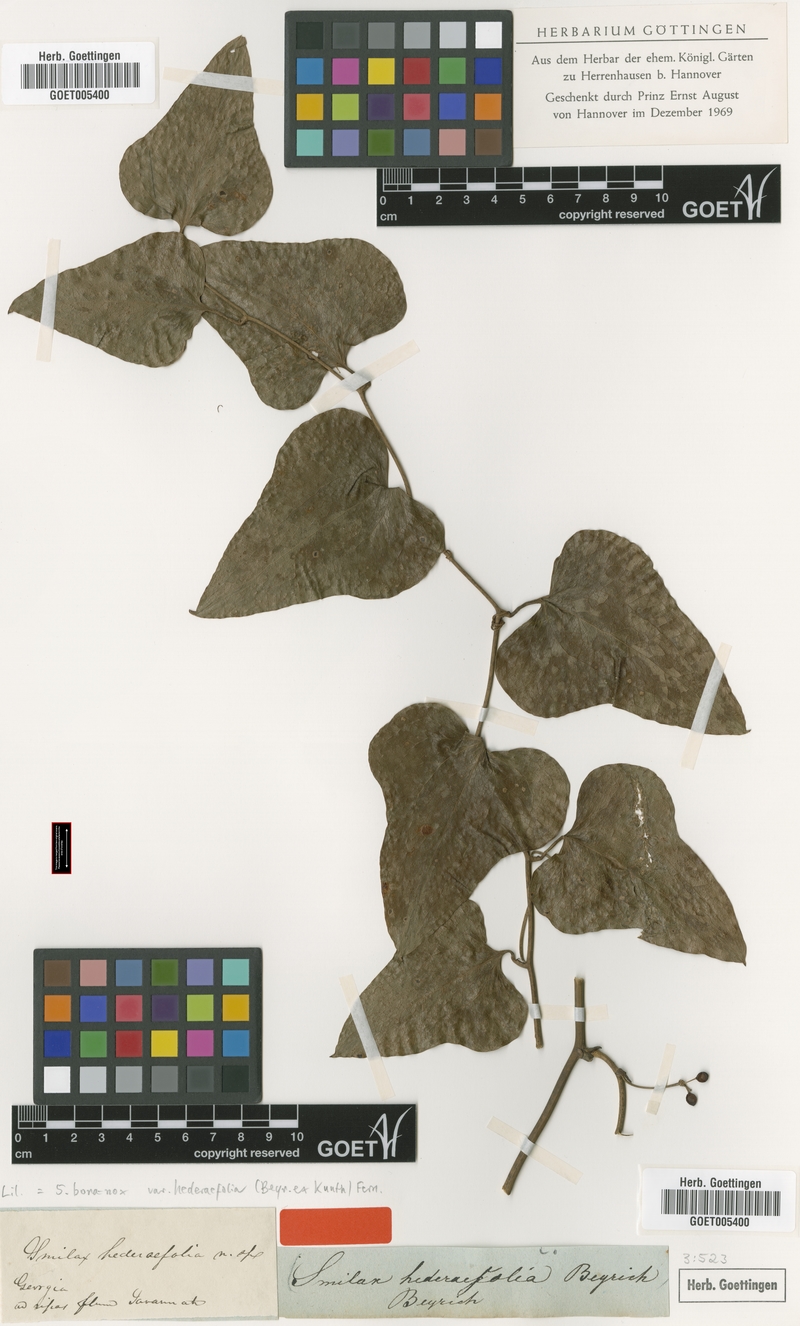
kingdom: Plantae
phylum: Tracheophyta
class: Liliopsida
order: Liliales
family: Smilacaceae
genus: Smilax
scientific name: Smilax bona-nox
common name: Catbrier
